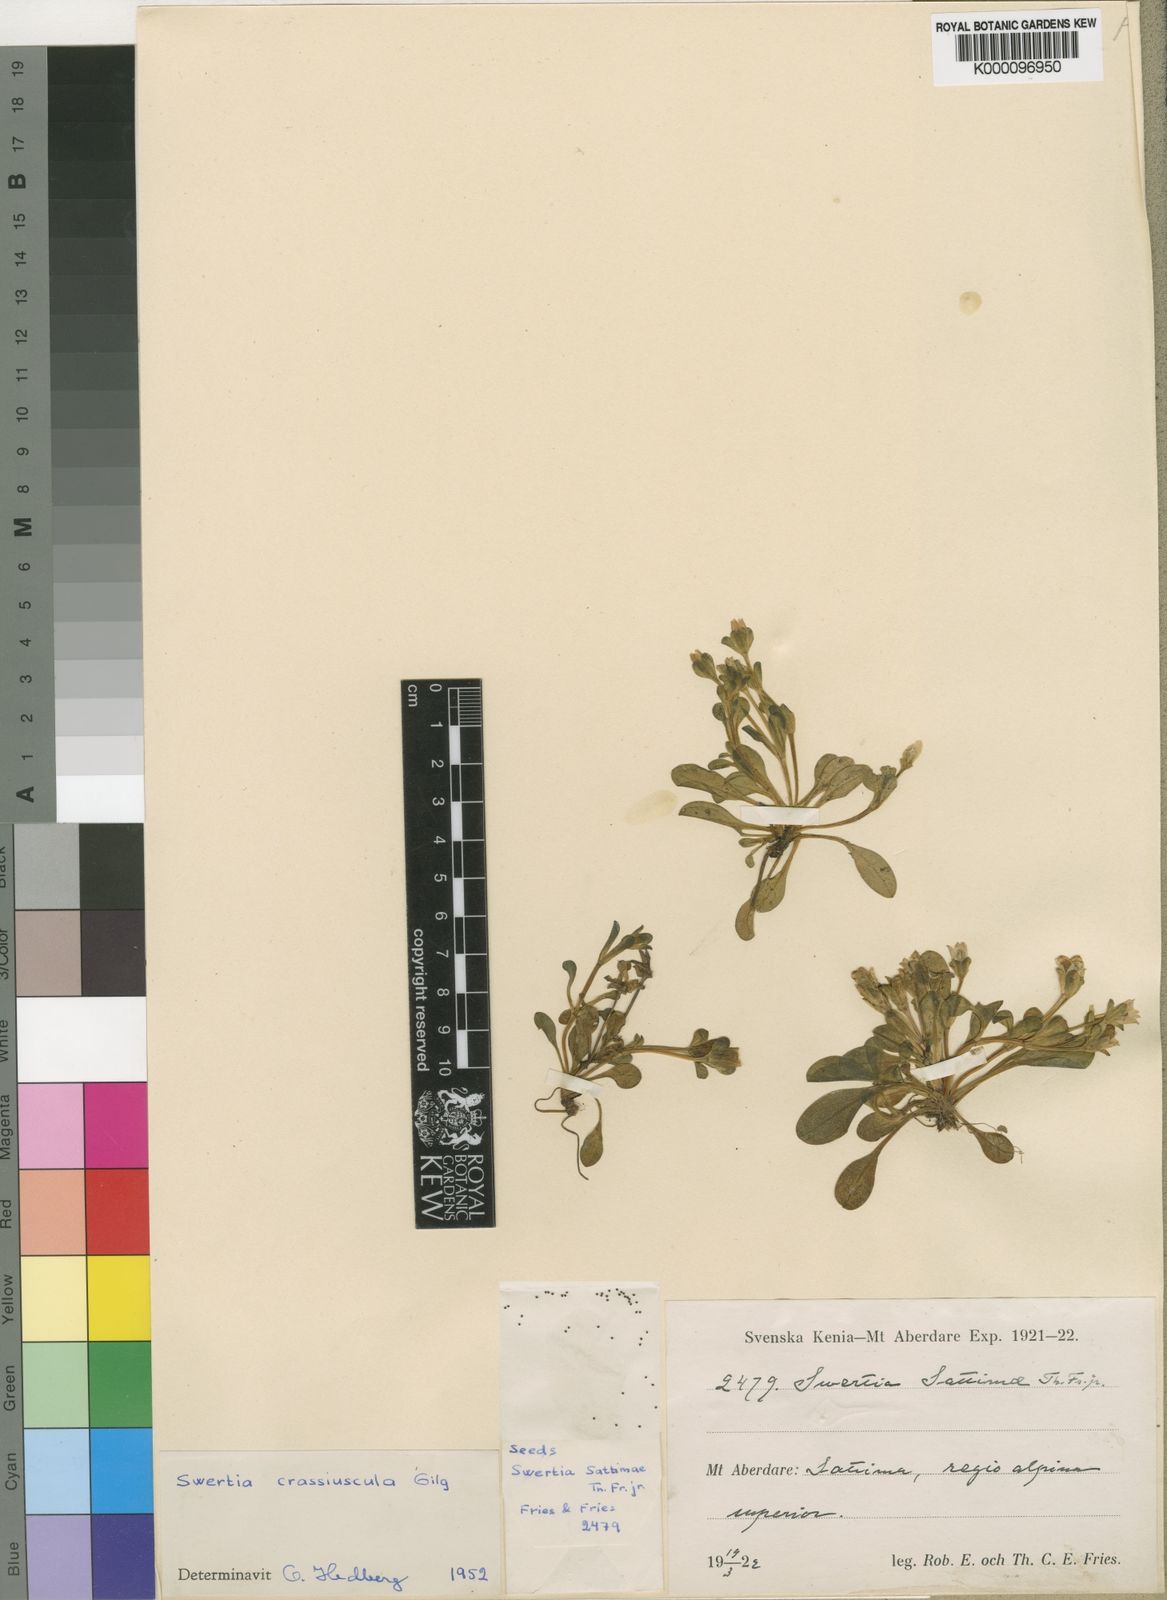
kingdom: Plantae
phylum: Tracheophyta
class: Magnoliopsida
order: Gentianales
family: Gentianaceae
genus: Swertia
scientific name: Swertia crassiuscula
